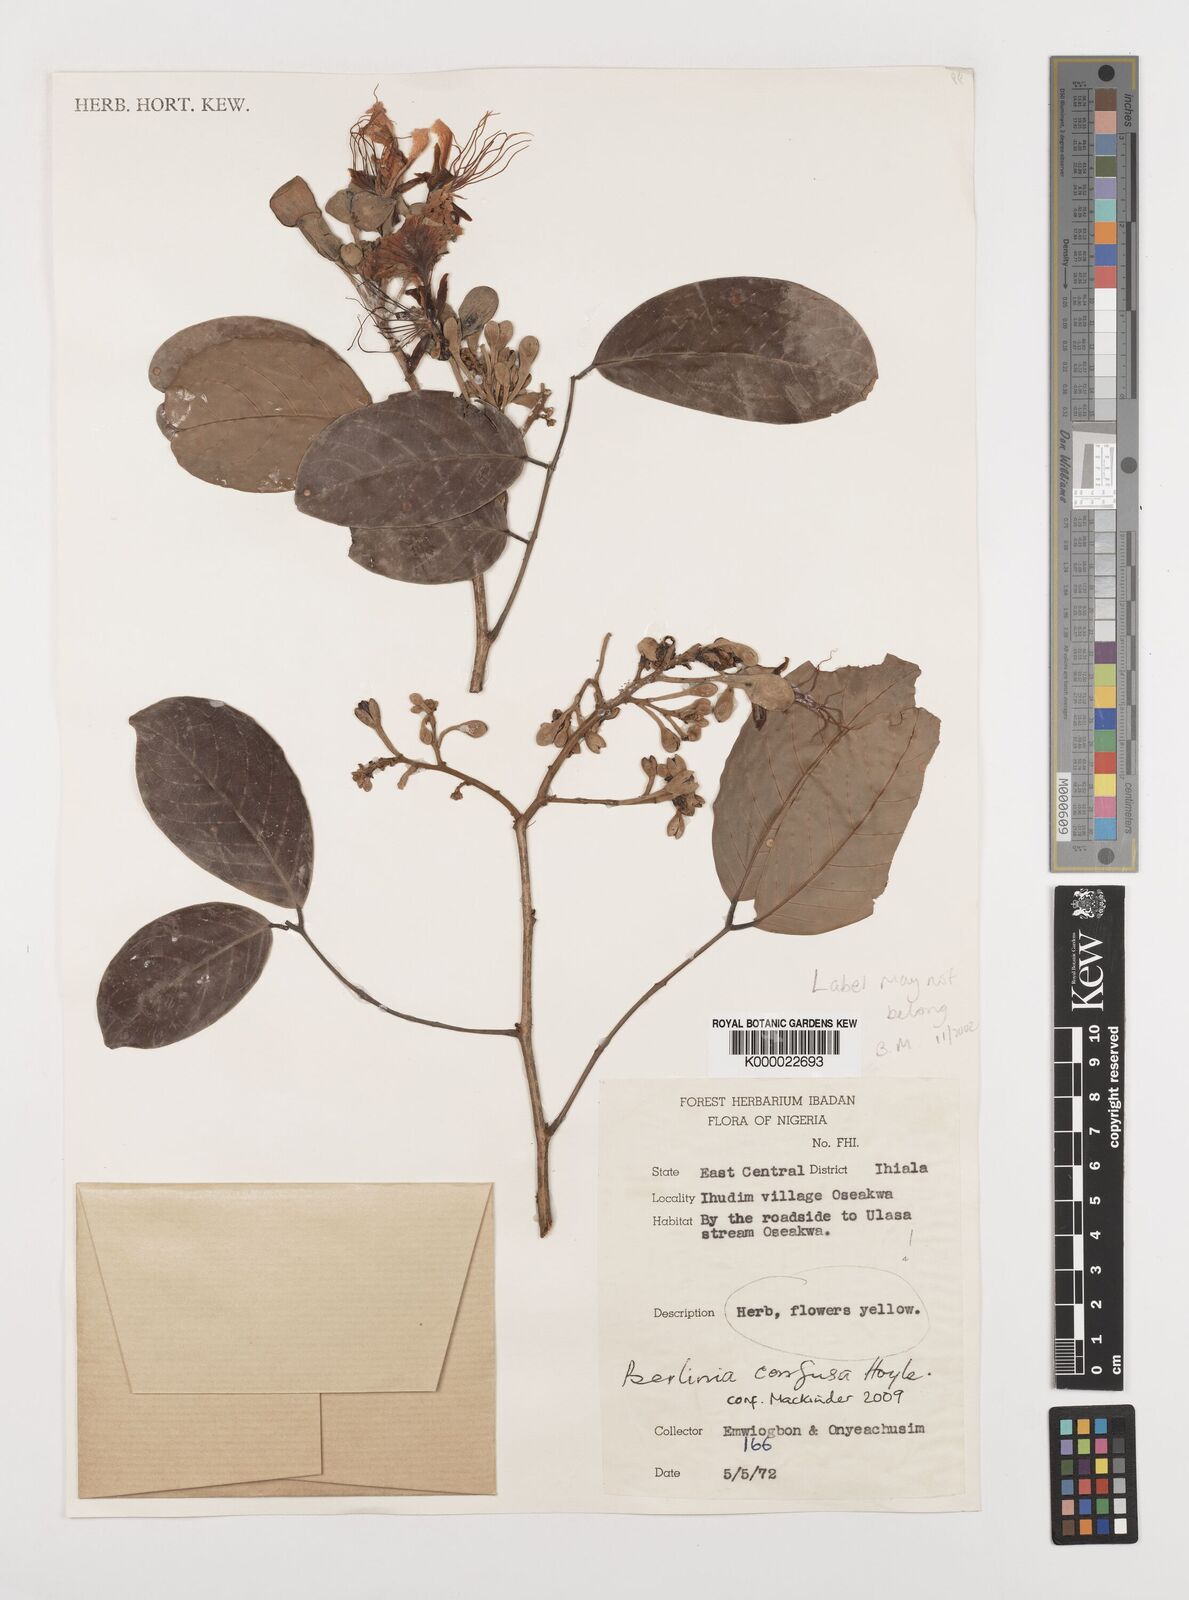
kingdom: Plantae
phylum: Tracheophyta
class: Magnoliopsida
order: Fabales
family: Fabaceae
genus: Berlinia
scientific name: Berlinia grandiflora
